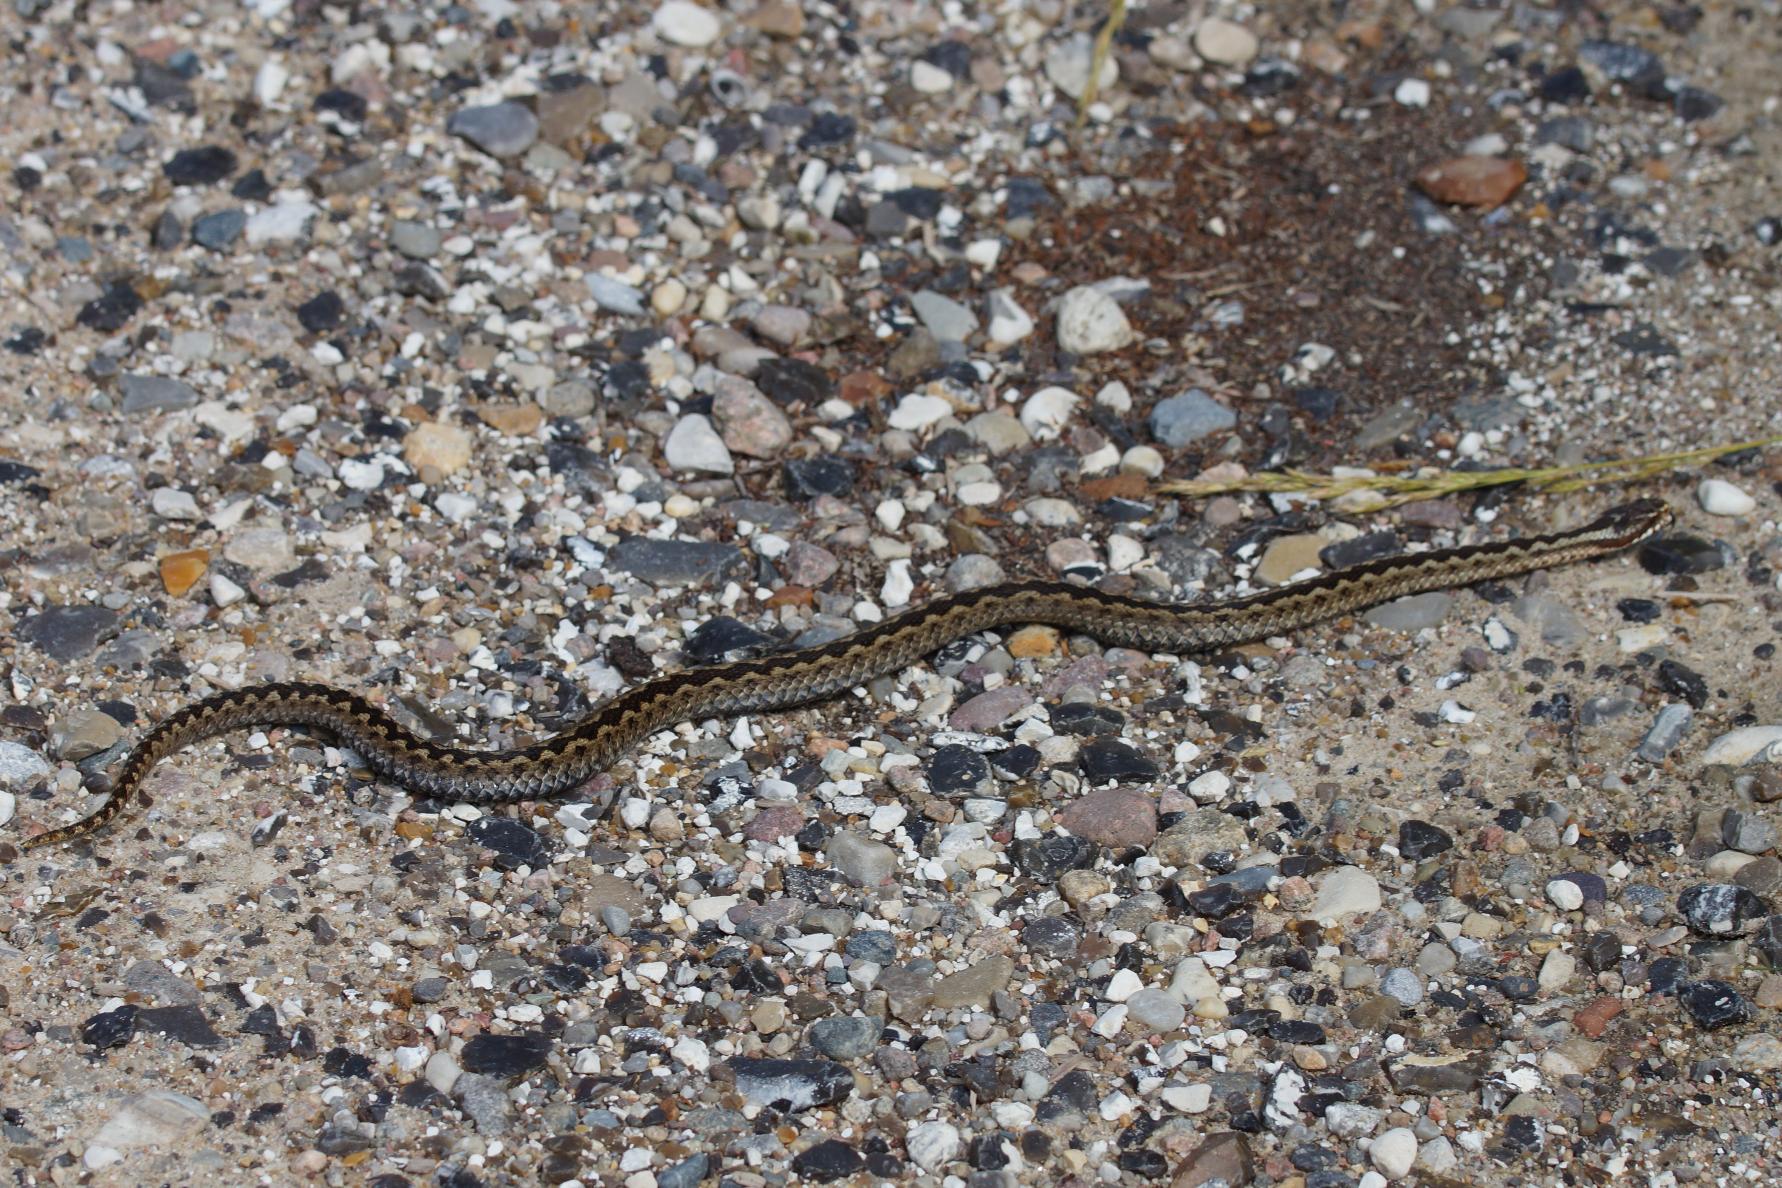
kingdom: Animalia
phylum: Chordata
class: Squamata
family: Viperidae
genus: Vipera
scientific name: Vipera berus
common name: Hugorm
